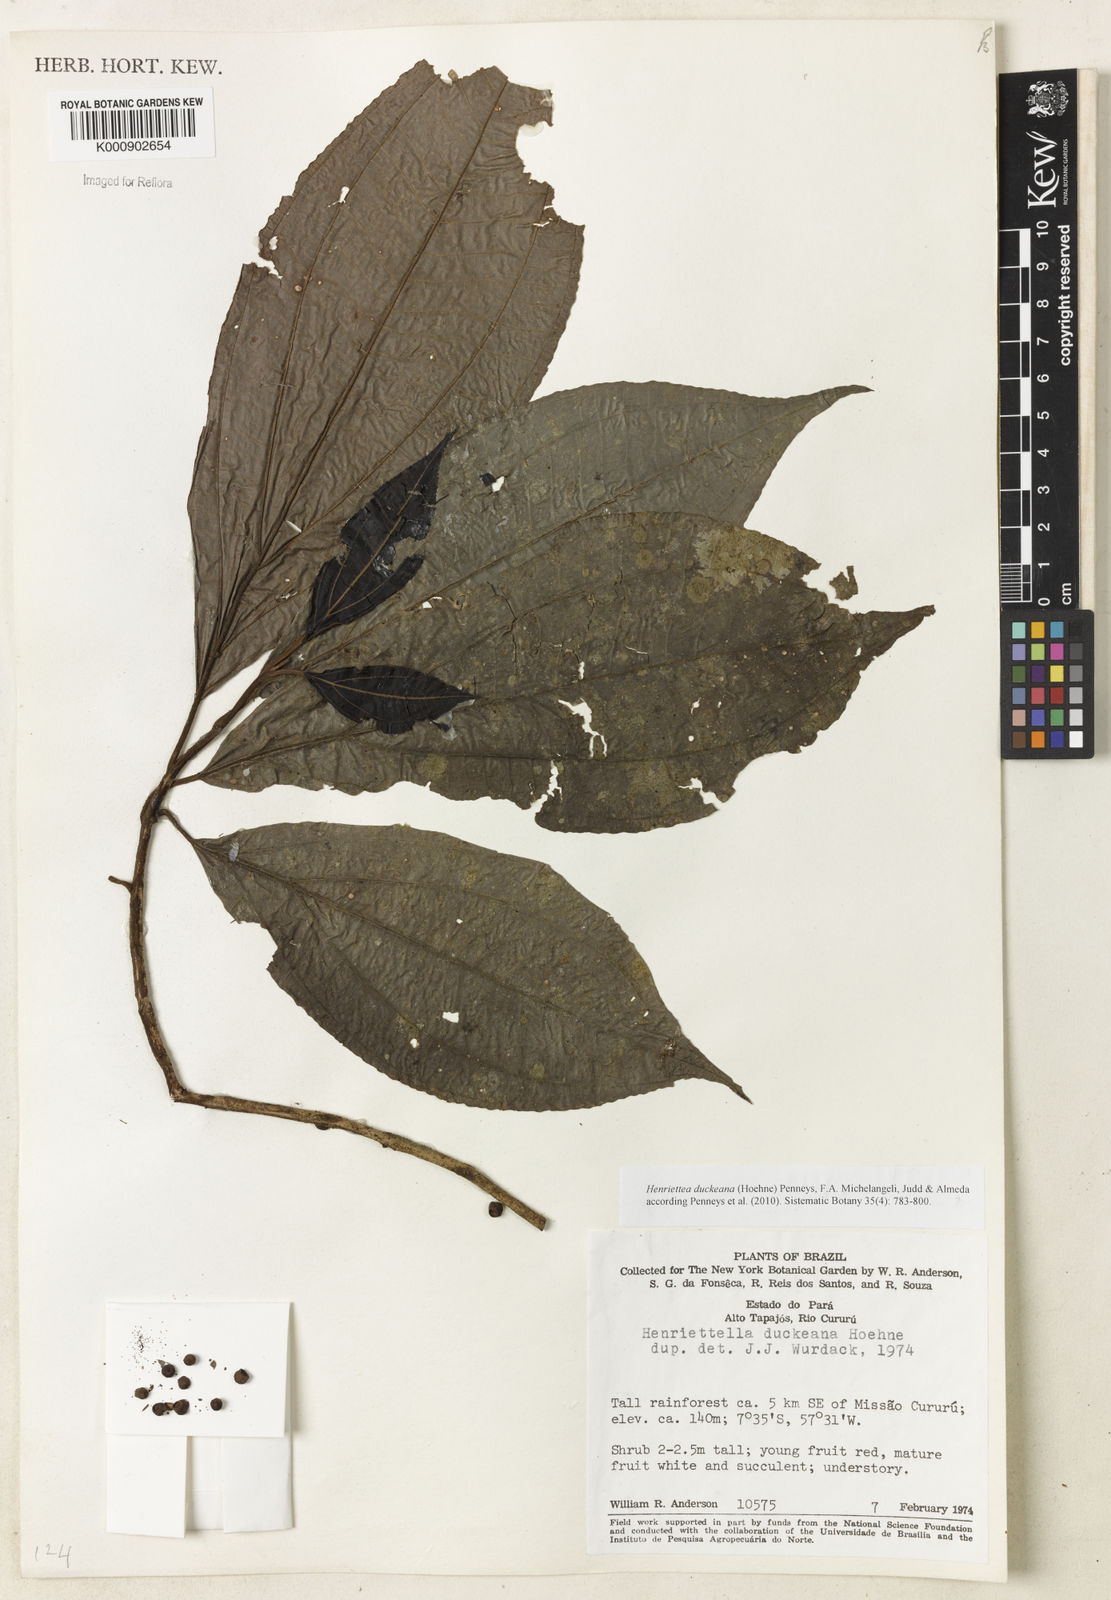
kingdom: Plantae
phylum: Tracheophyta
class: Magnoliopsida
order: Myrtales
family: Melastomataceae
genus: Henriettea
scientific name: Henriettea duckeana
